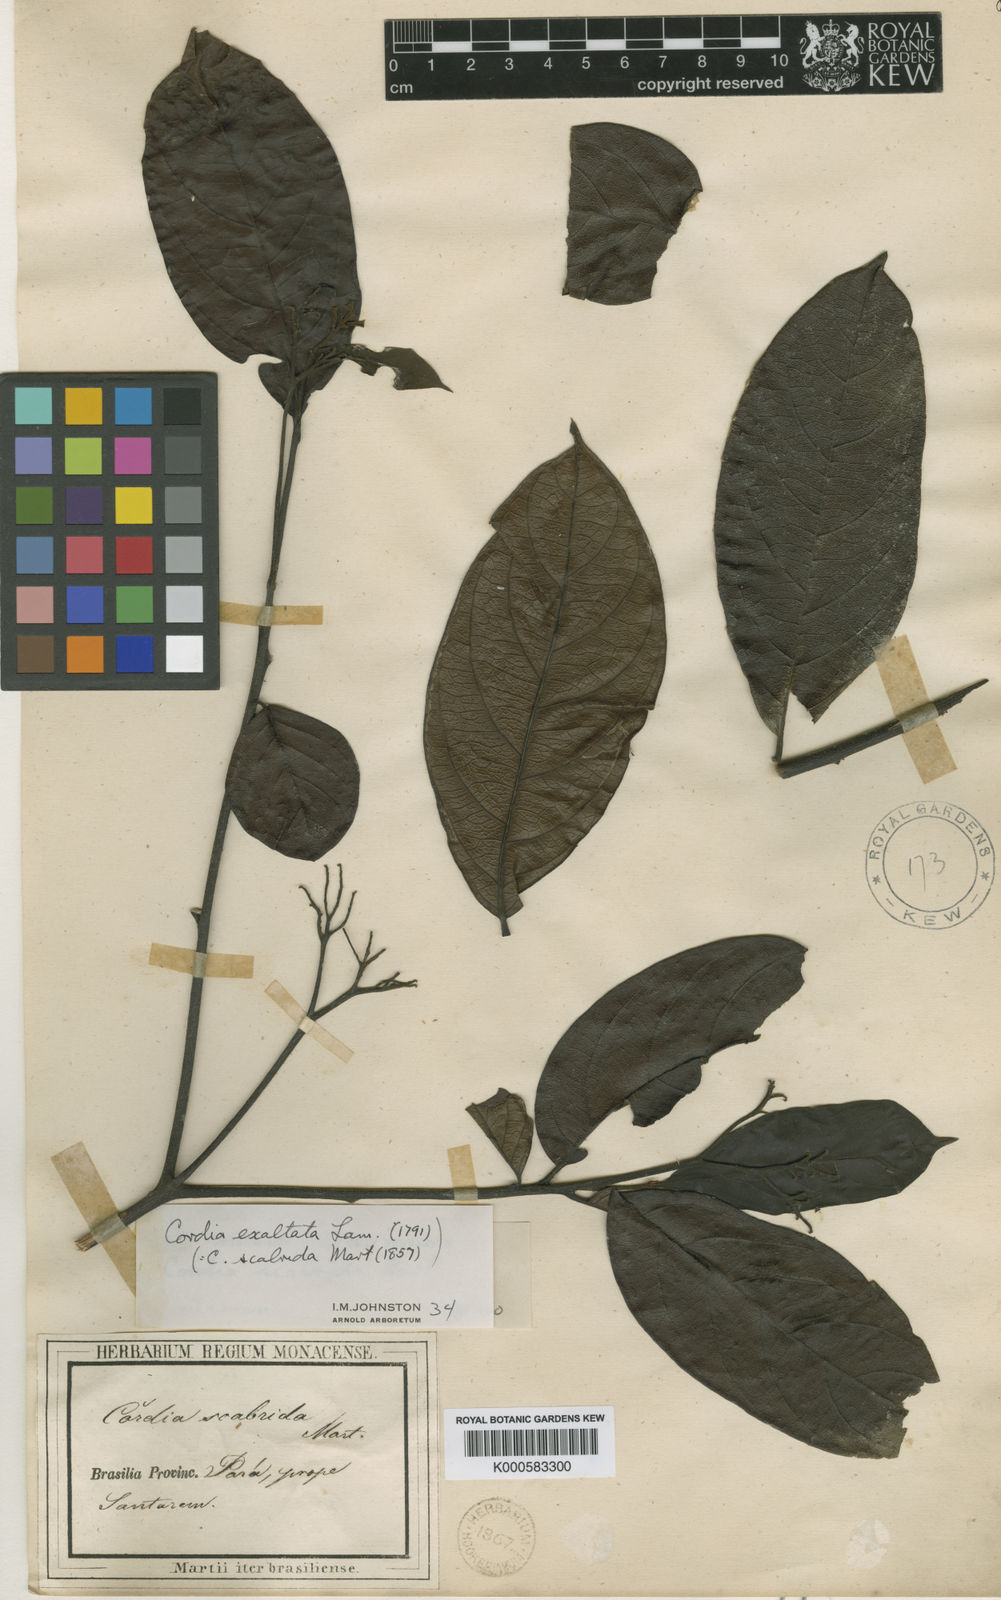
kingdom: Plantae
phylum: Tracheophyta
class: Magnoliopsida
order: Boraginales
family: Cordiaceae
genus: Cordia
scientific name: Cordia exaltata
